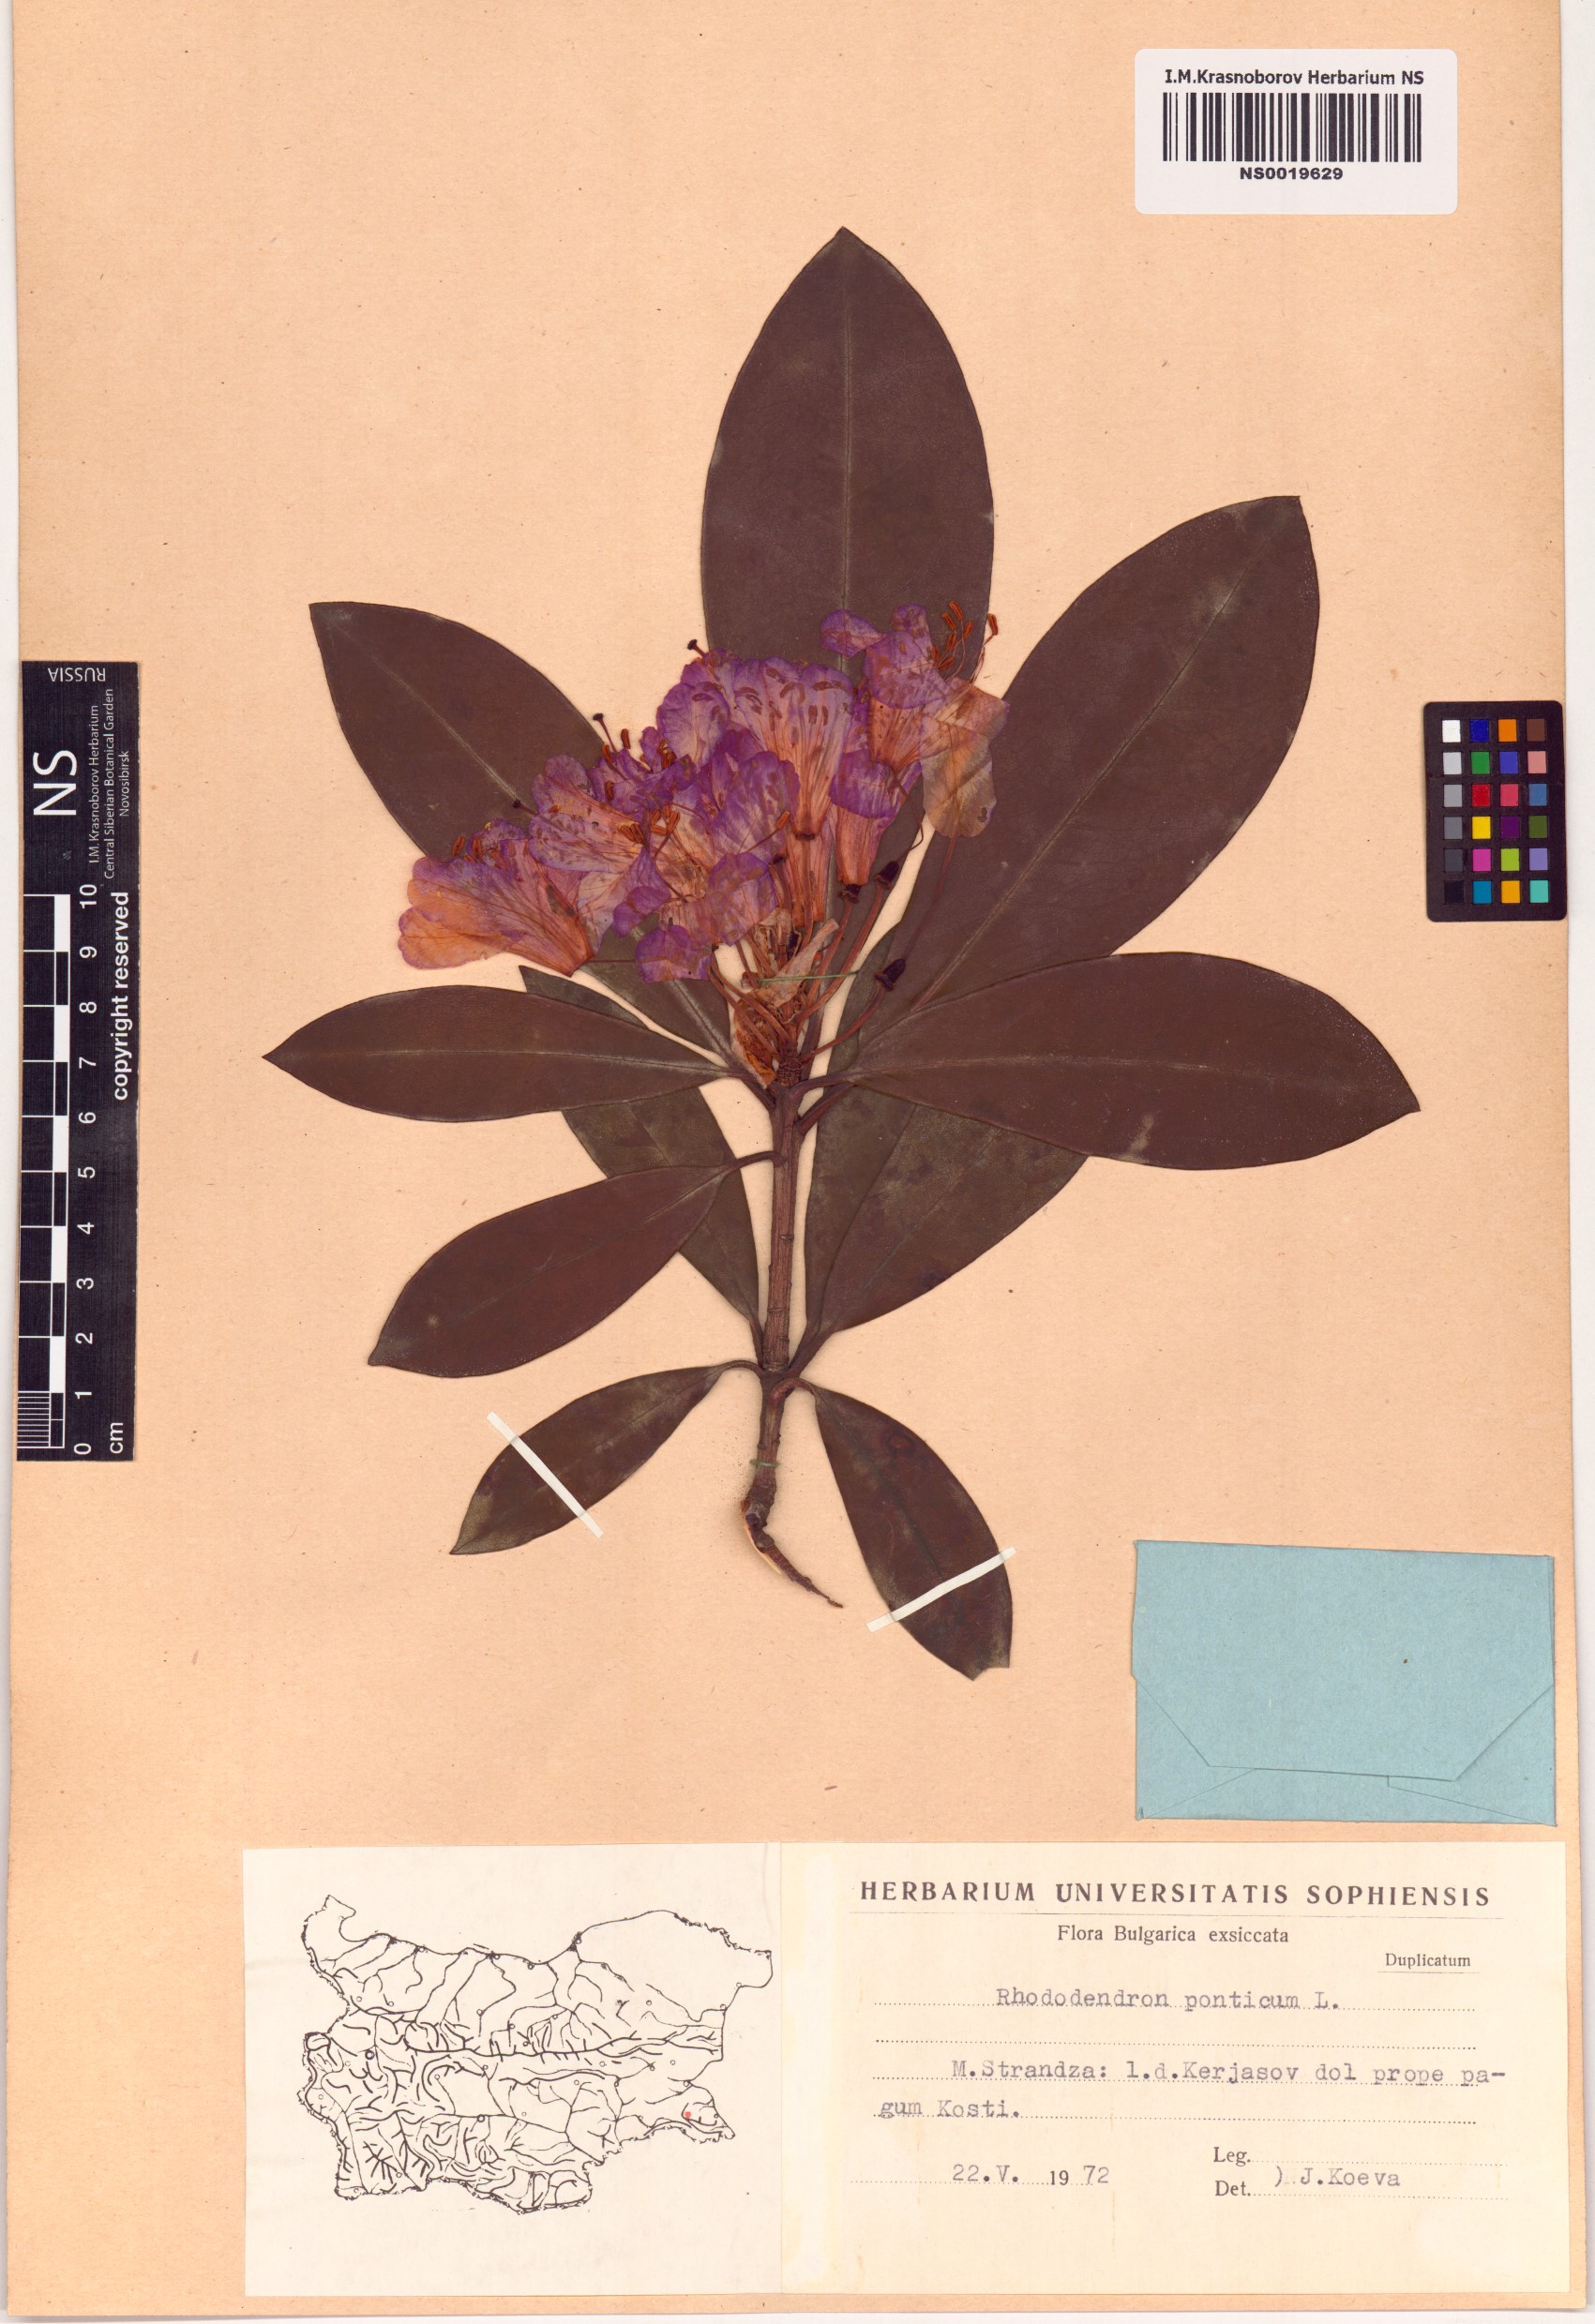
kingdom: Plantae
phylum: Tracheophyta
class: Magnoliopsida
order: Ericales
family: Ericaceae
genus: Rhododendron
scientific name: Rhododendron ponticum
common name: Rhododendron
